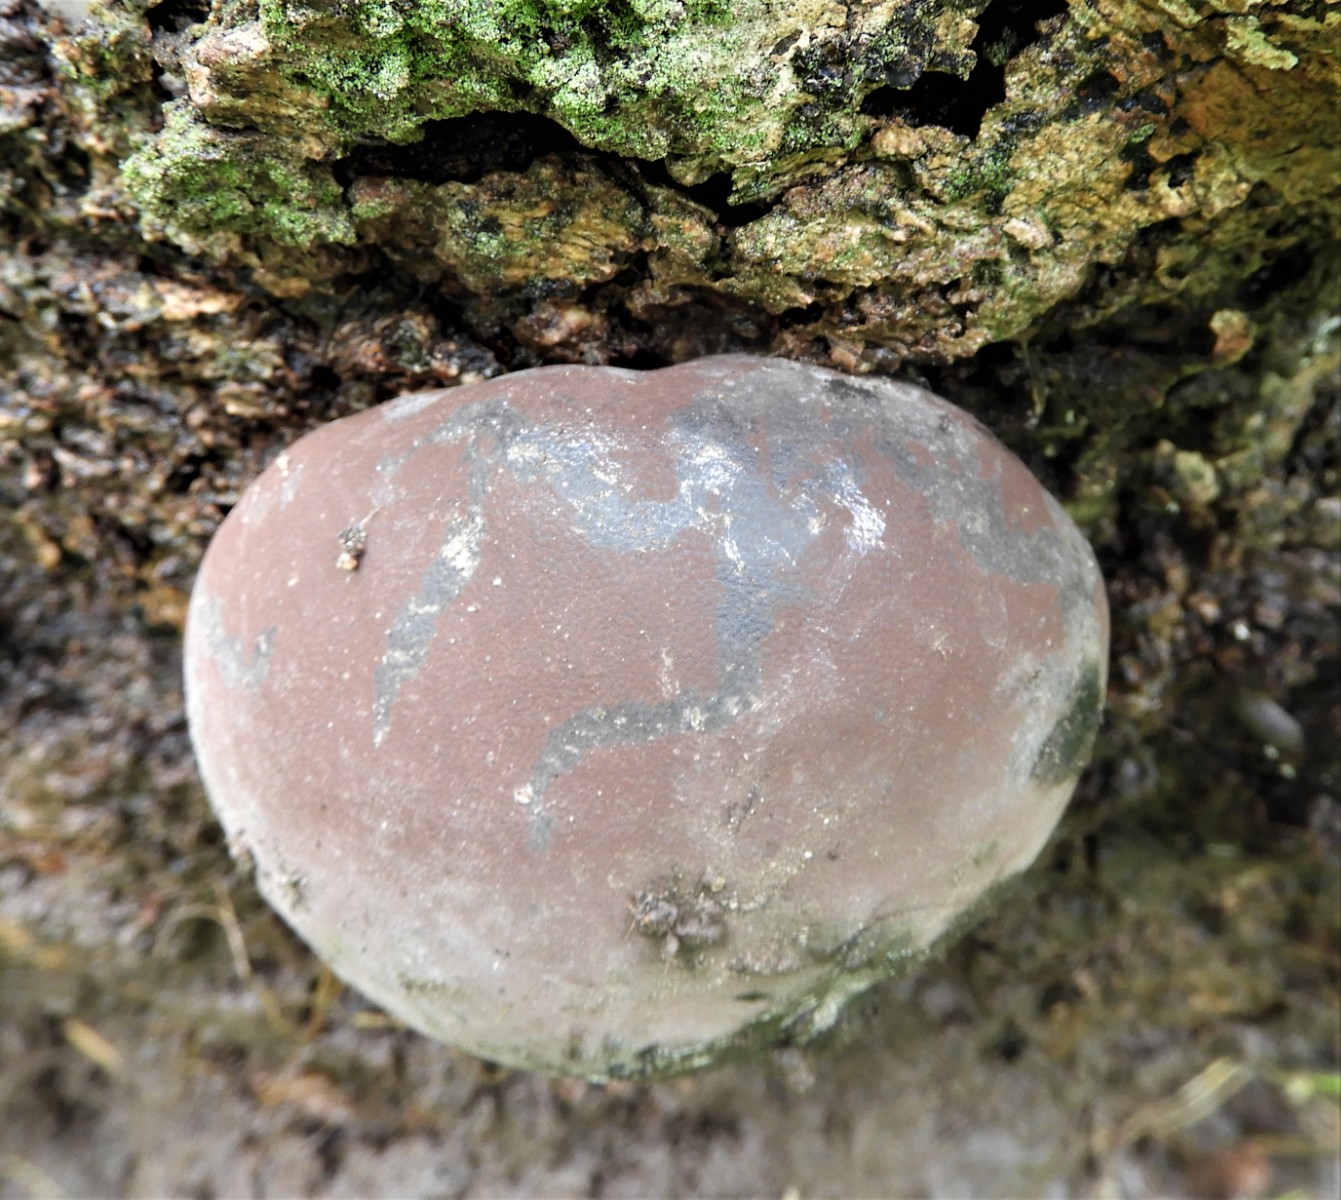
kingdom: Fungi
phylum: Ascomycota
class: Sordariomycetes
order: Xylariales
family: Hypoxylaceae
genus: Daldinia
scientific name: Daldinia concentrica
